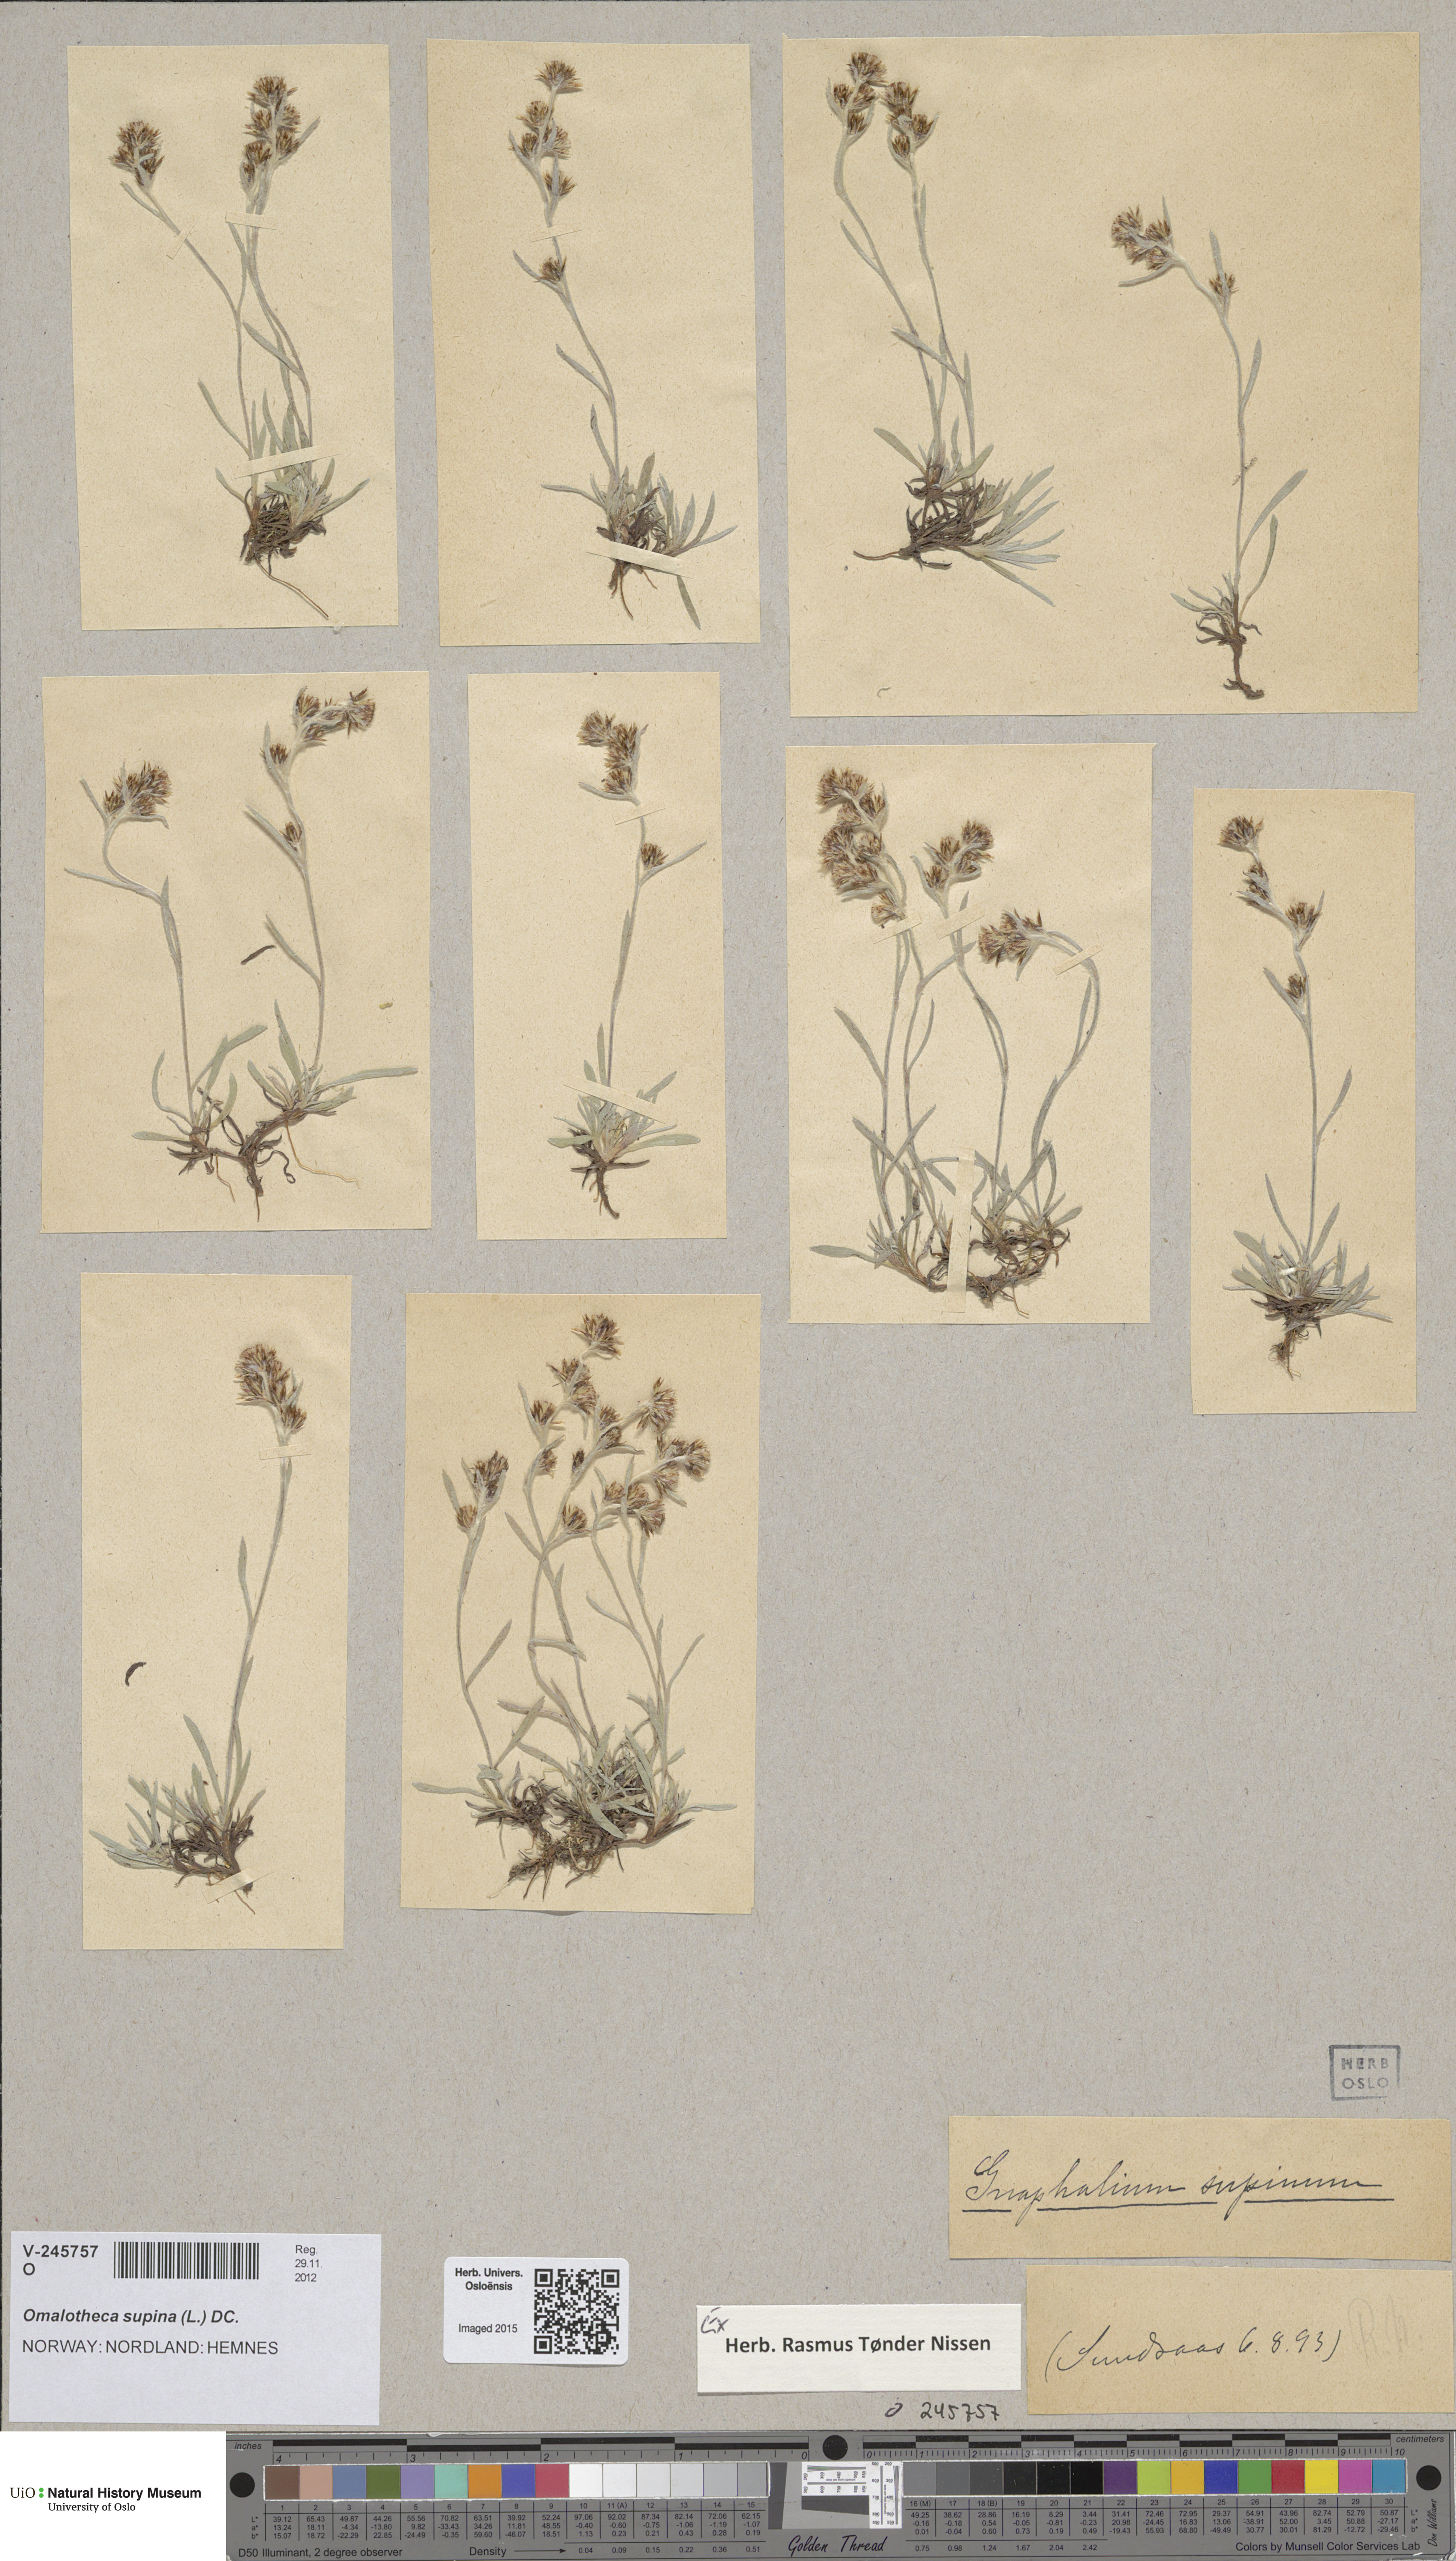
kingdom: Plantae
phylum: Tracheophyta
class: Magnoliopsida
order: Asterales
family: Asteraceae
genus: Omalotheca
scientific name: Omalotheca supina
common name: Alpine arctic-cudweed
